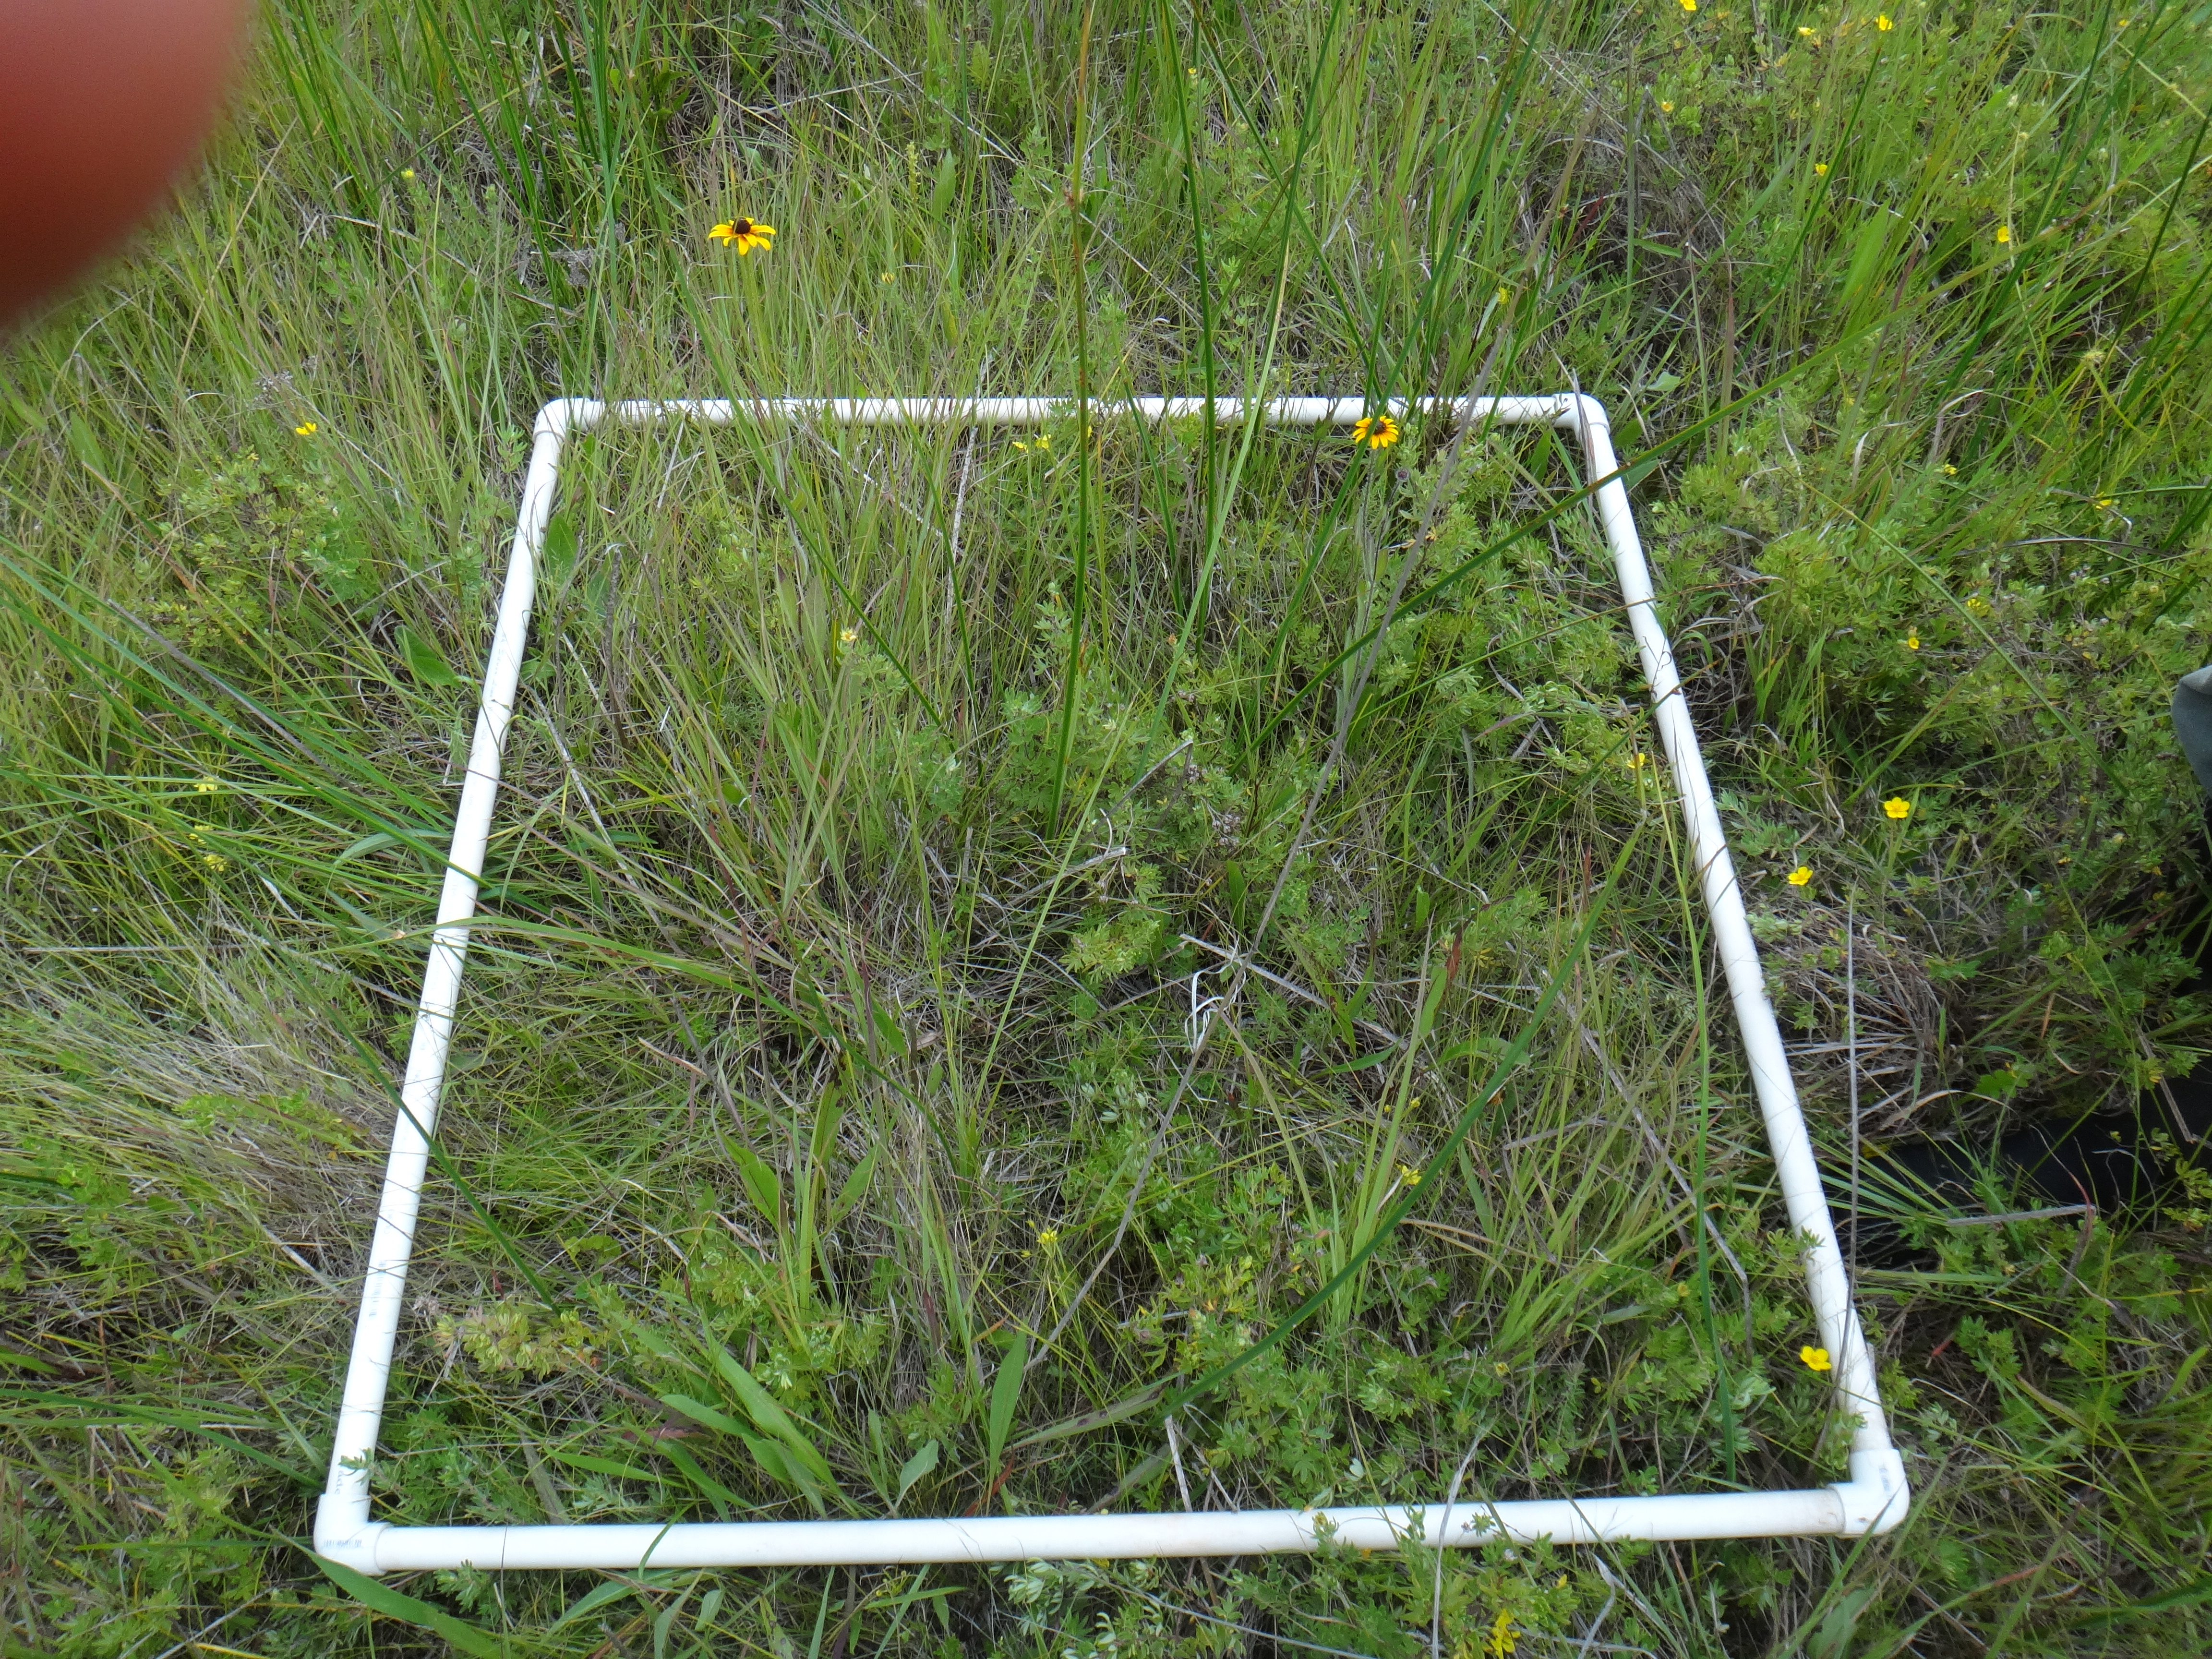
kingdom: Plantae
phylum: Tracheophyta
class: Liliopsida
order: Poales
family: Poaceae
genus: Muhlenbergia
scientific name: Muhlenbergia glomerata
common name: Bog muhly
